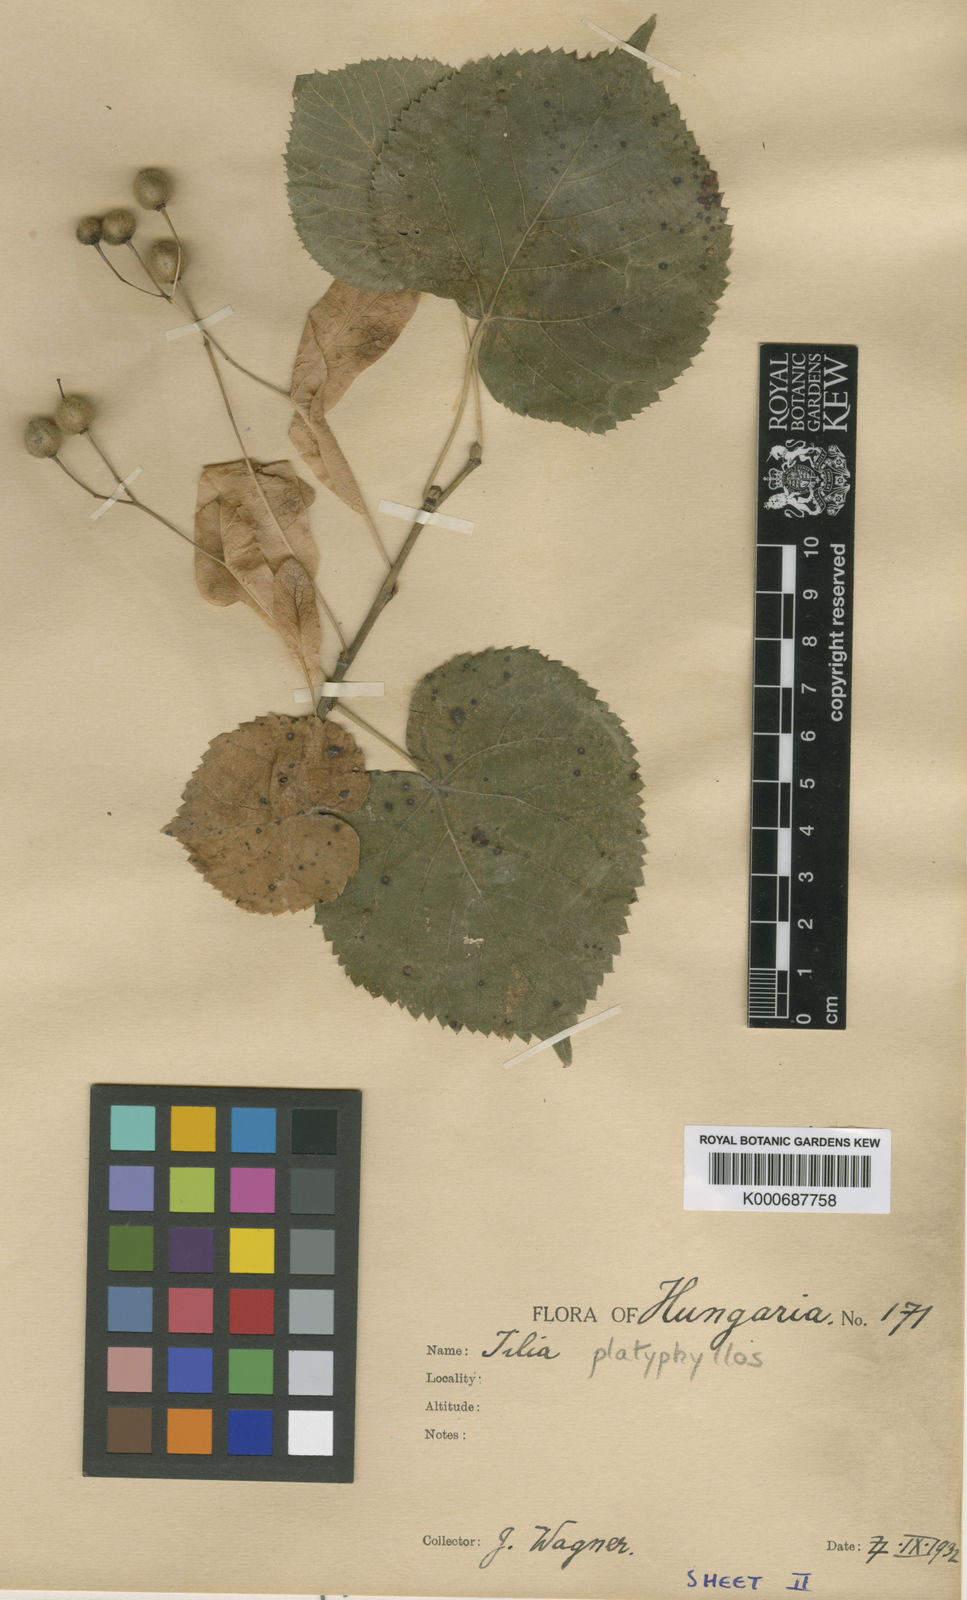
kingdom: Plantae
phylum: Tracheophyta
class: Magnoliopsida
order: Malvales
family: Malvaceae
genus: Tilia
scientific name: Tilia platyphyllos
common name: Large-leaved lime
